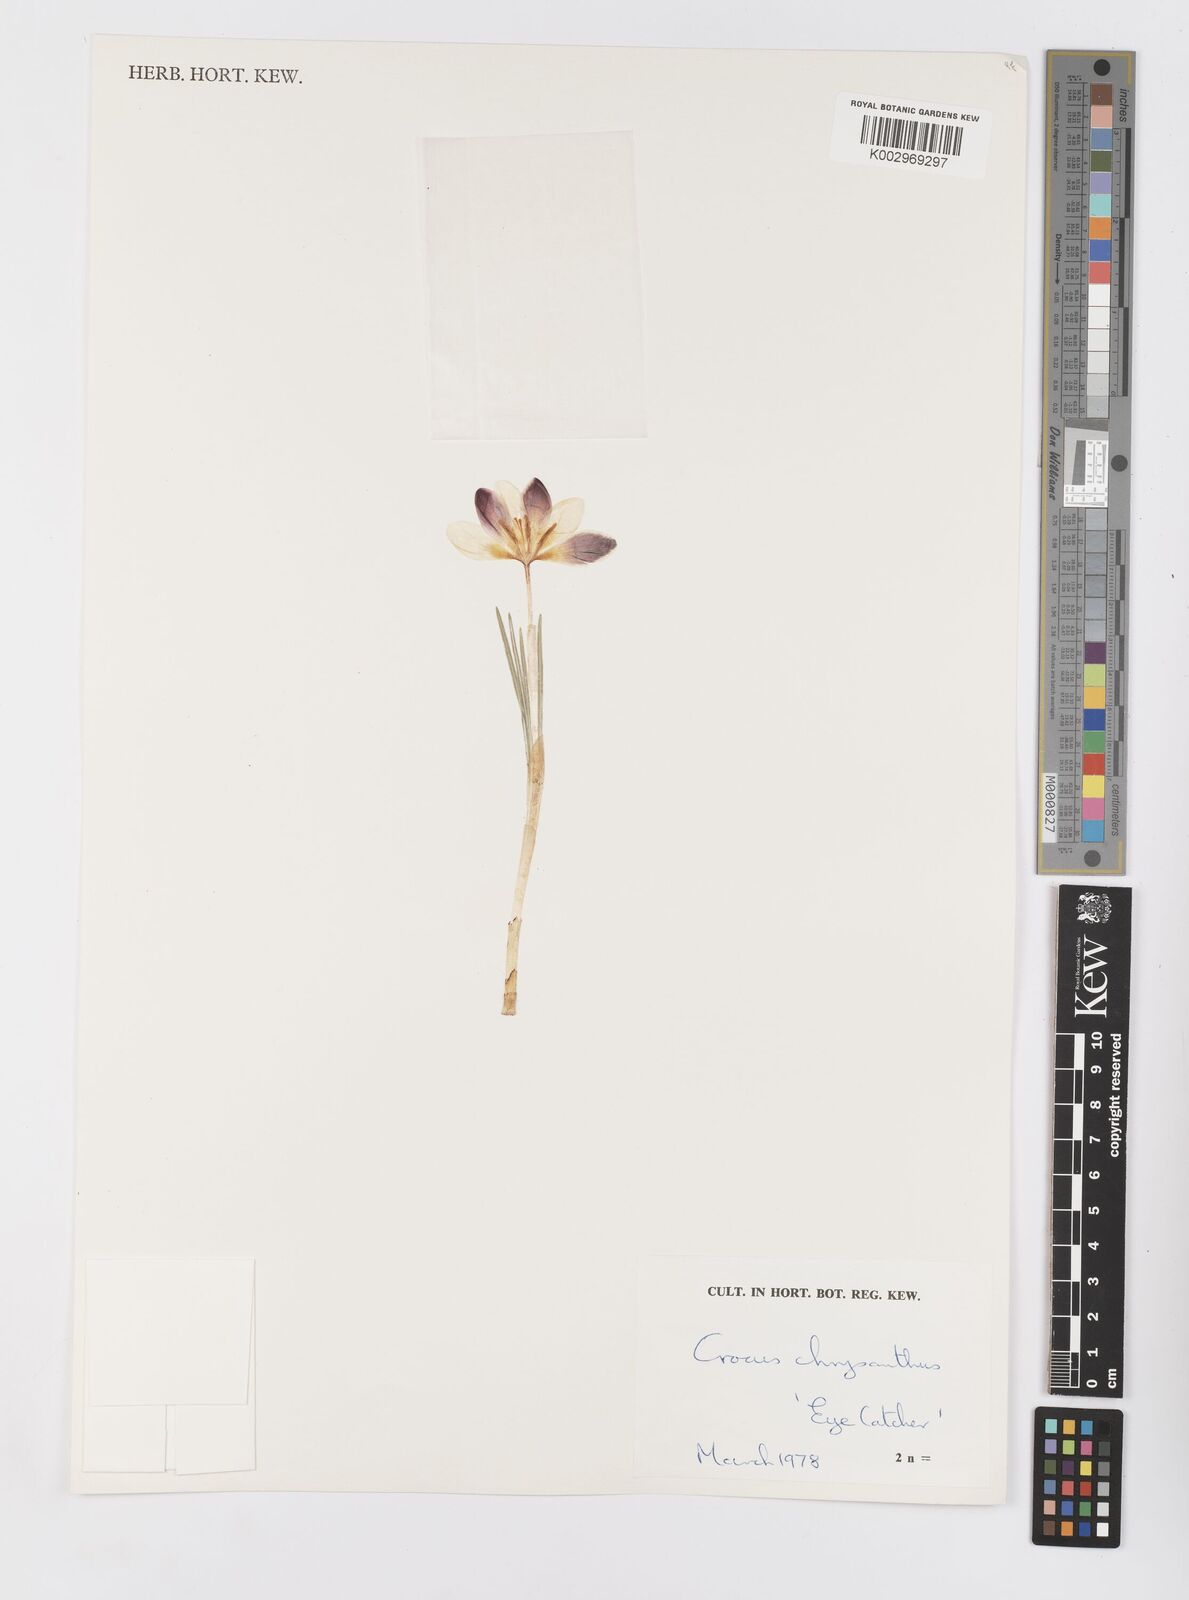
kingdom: Plantae
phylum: Tracheophyta
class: Liliopsida
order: Asparagales
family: Iridaceae
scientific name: Iridaceae
